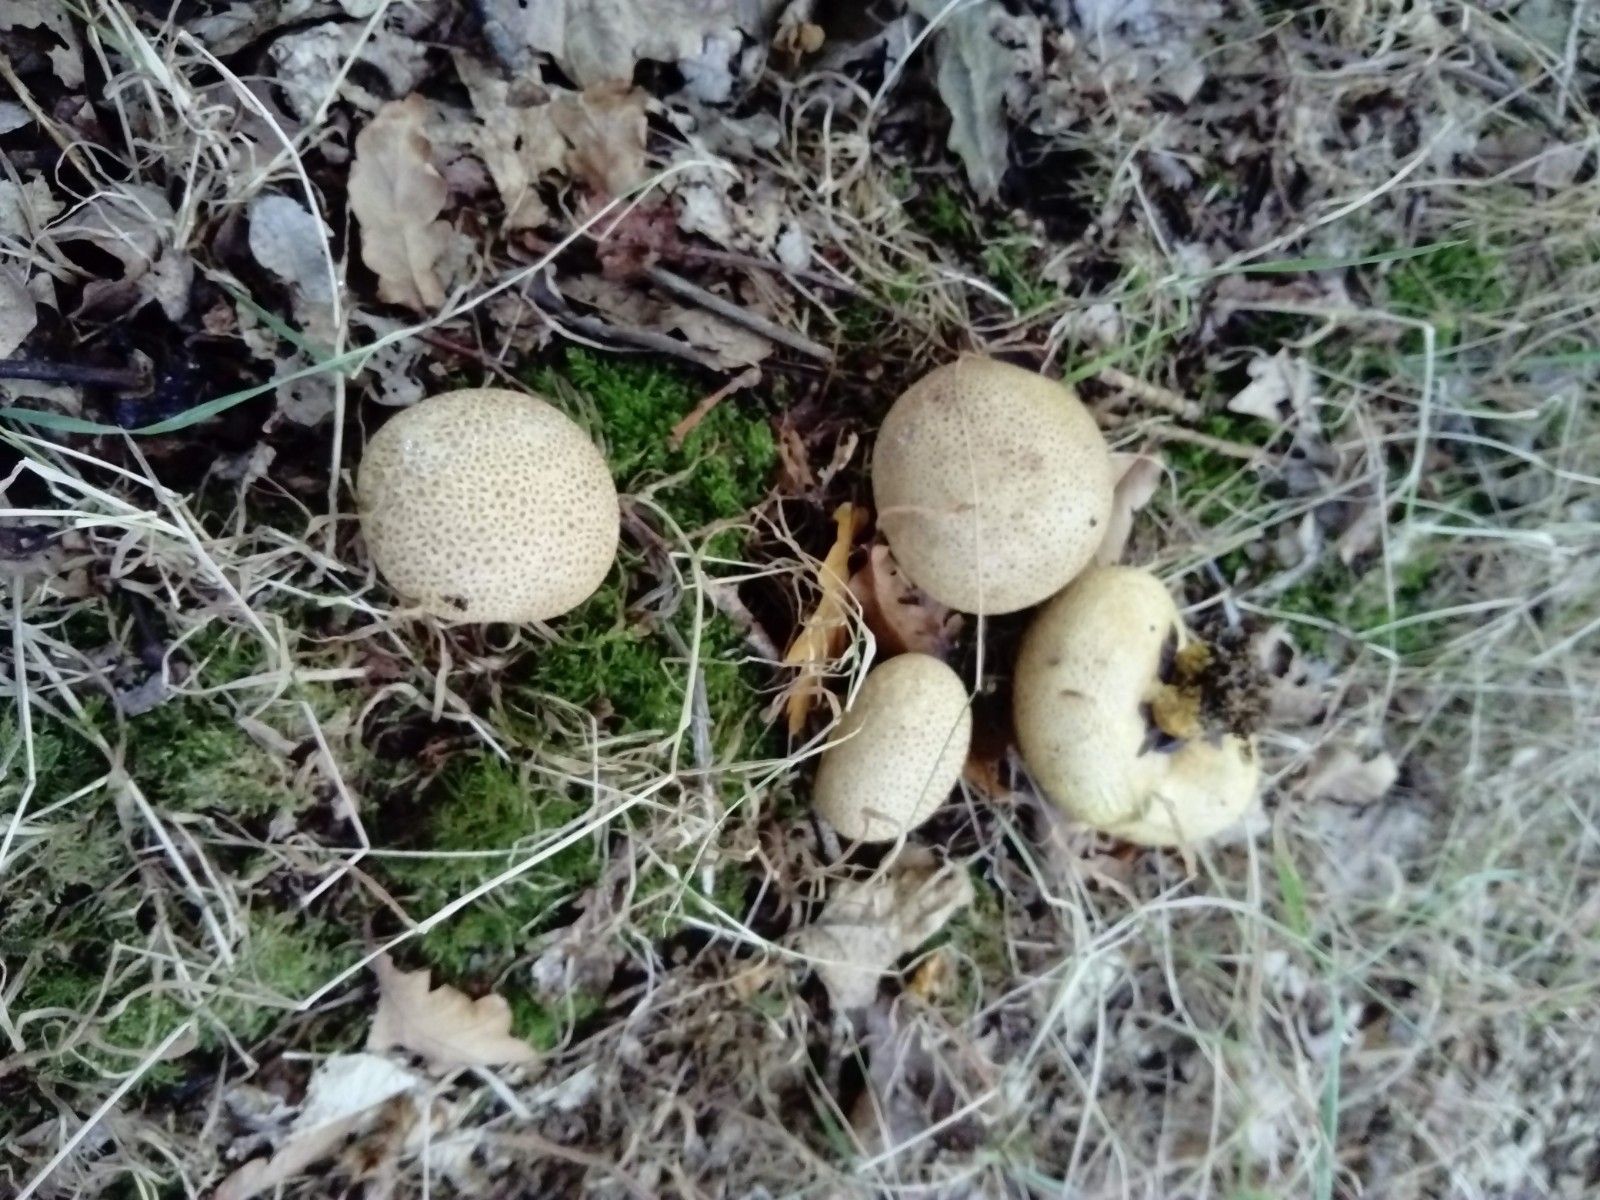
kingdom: Fungi
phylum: Basidiomycota
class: Agaricomycetes
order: Boletales
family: Sclerodermataceae
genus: Scleroderma
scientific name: Scleroderma citrinum
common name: almindelig bruskbold
